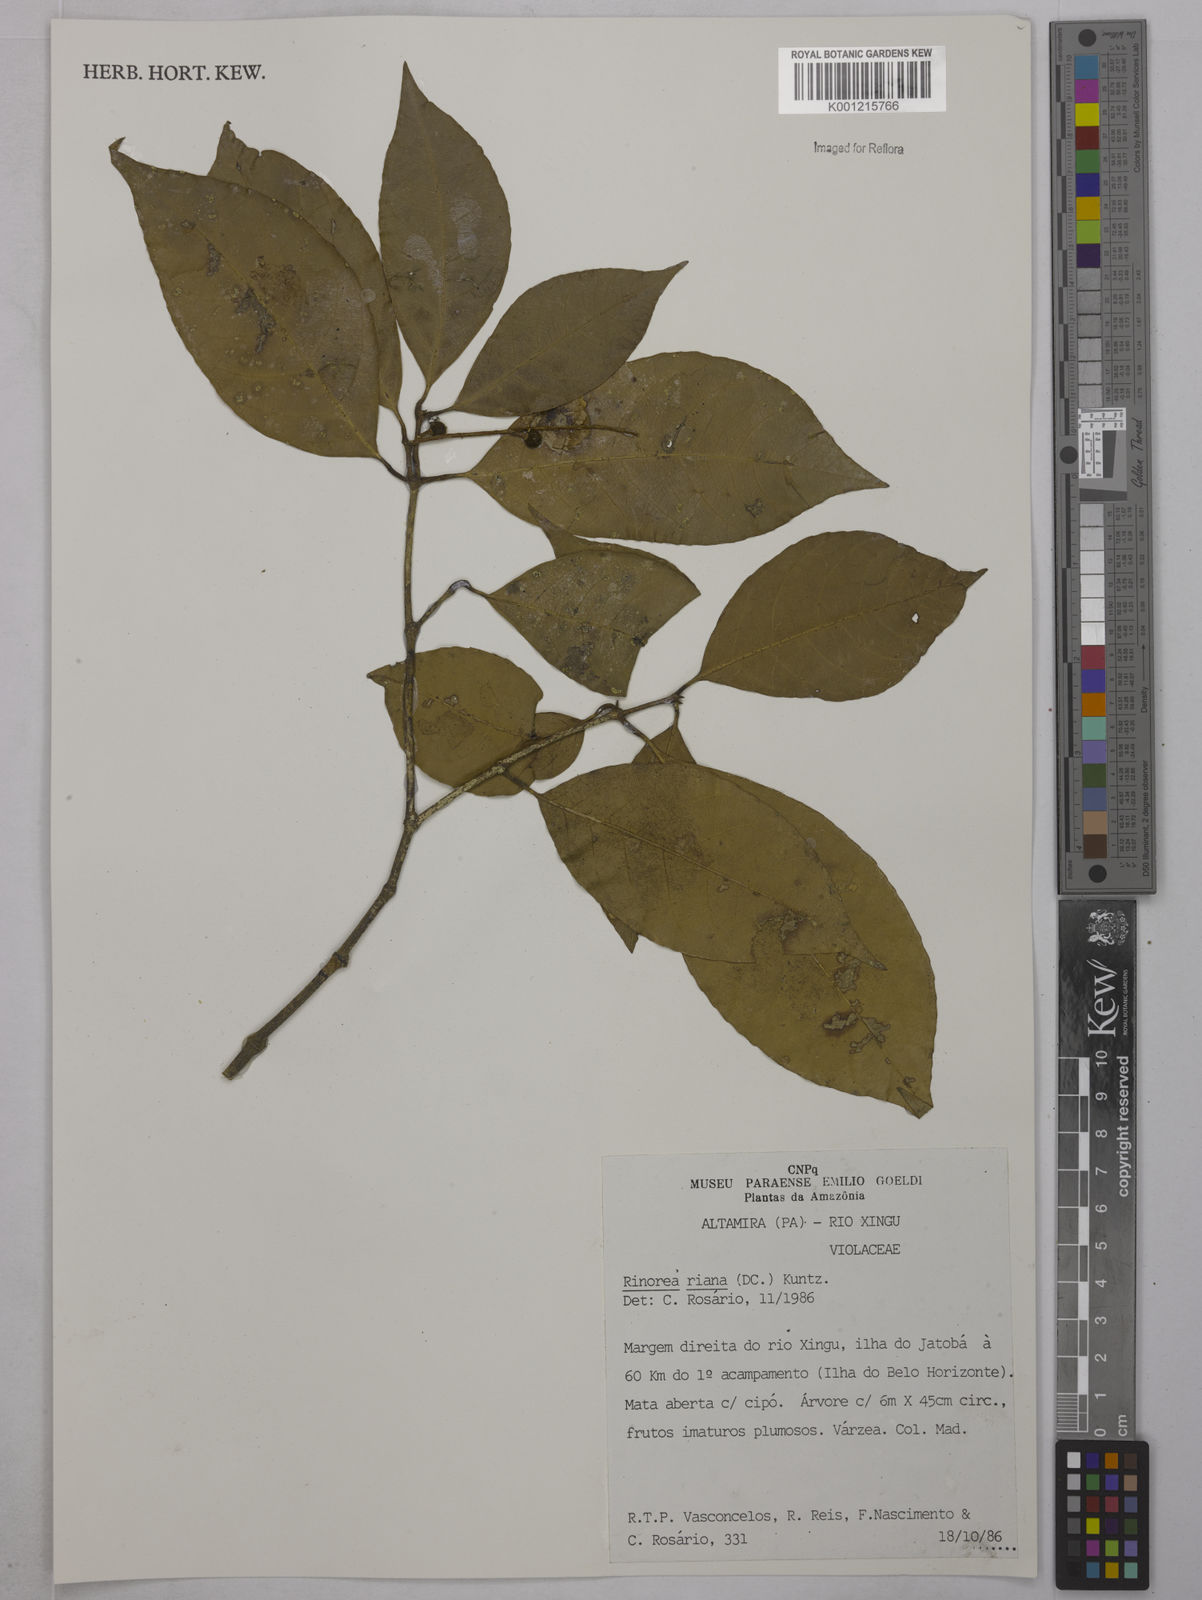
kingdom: Plantae
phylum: Tracheophyta
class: Magnoliopsida
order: Malpighiales
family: Violaceae
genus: Rinorea
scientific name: Rinorea riana
